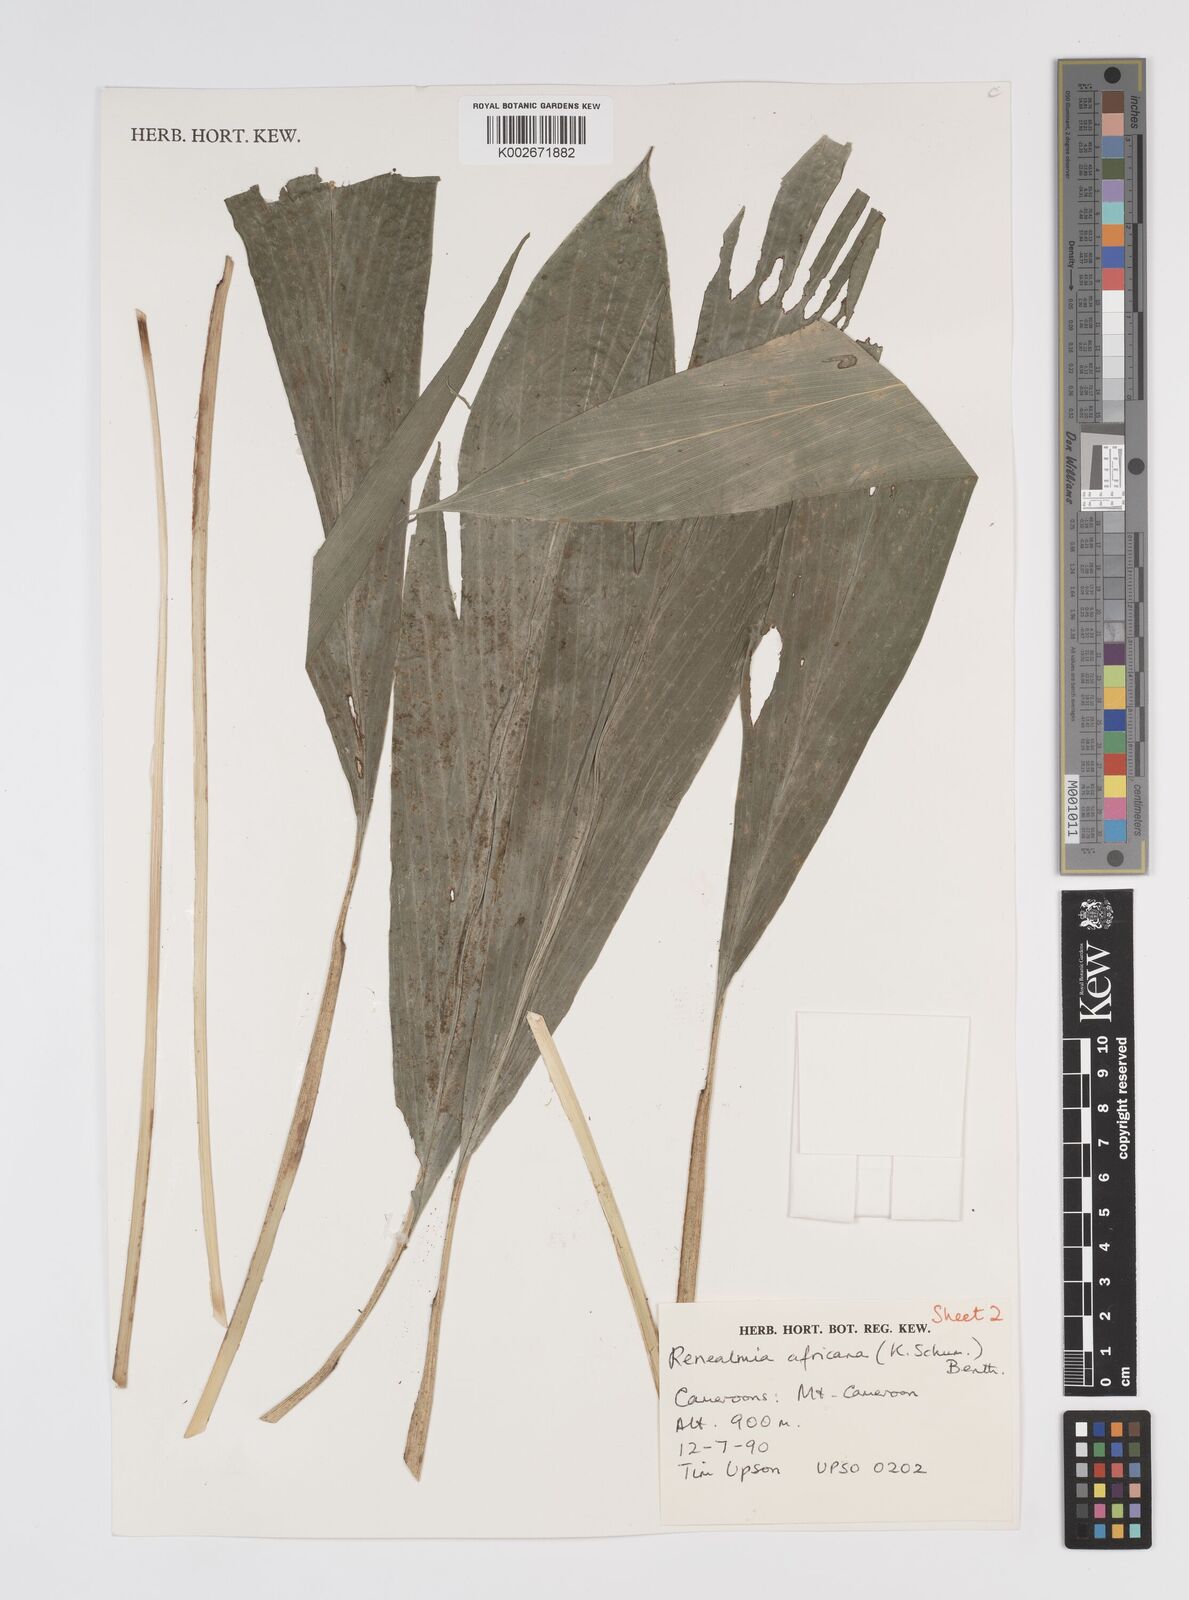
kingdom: Plantae
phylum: Tracheophyta
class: Liliopsida
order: Zingiberales
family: Zingiberaceae
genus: Renealmia
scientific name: Renealmia africana
